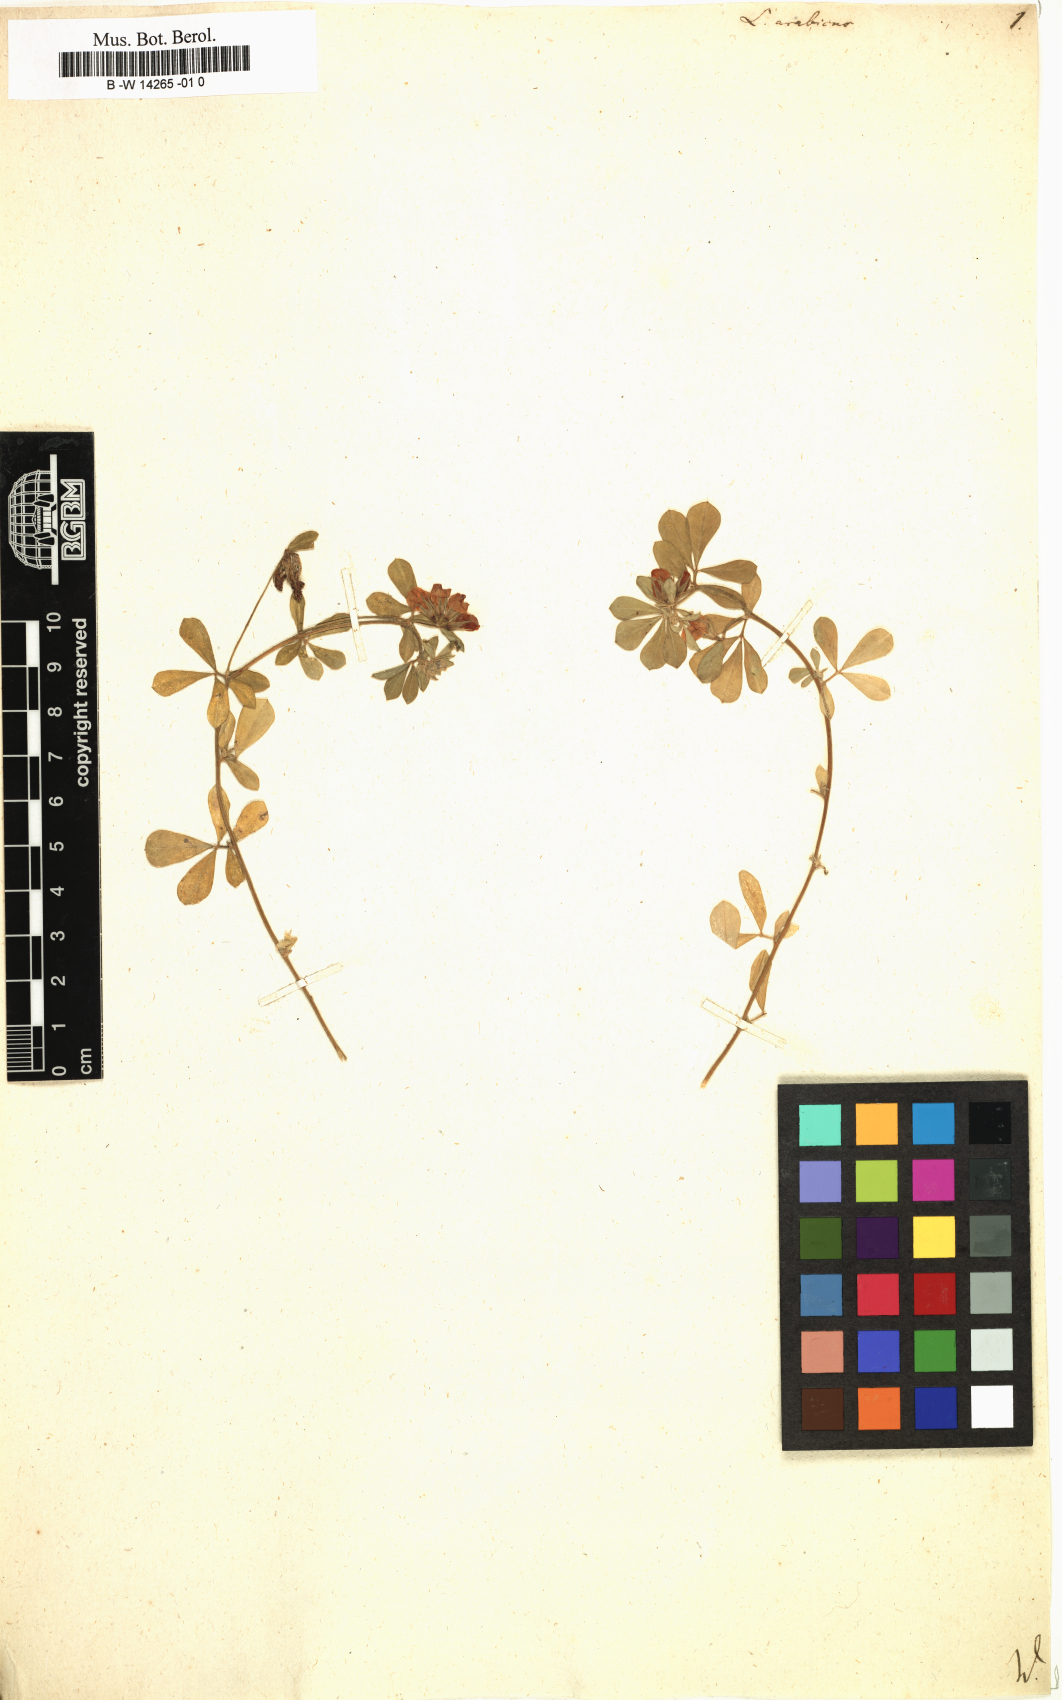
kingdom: Plantae
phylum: Tracheophyta
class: Magnoliopsida
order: Fabales
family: Fabaceae
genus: Lotus
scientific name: Lotus arabicus
